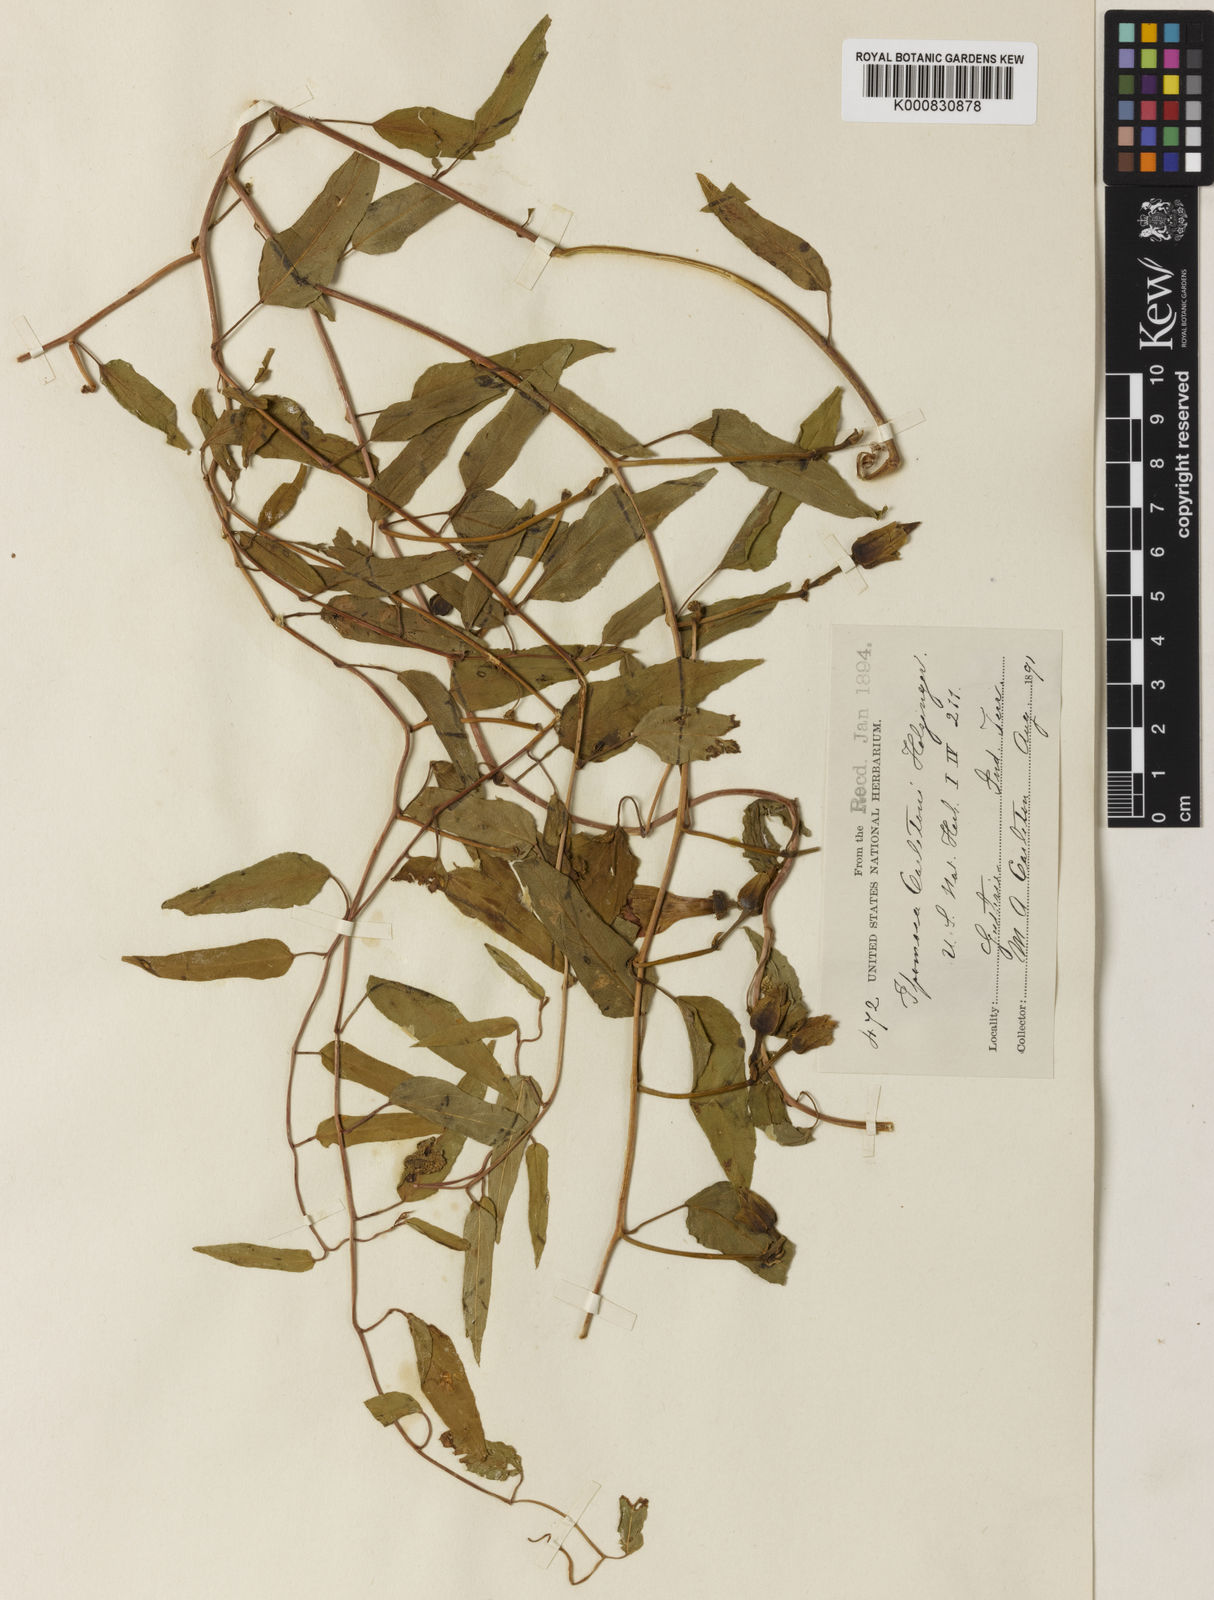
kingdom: Plantae
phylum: Tracheophyta
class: Magnoliopsida
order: Solanales
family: Convolvulaceae
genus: Ipomoea
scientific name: Ipomoea shumardiana
